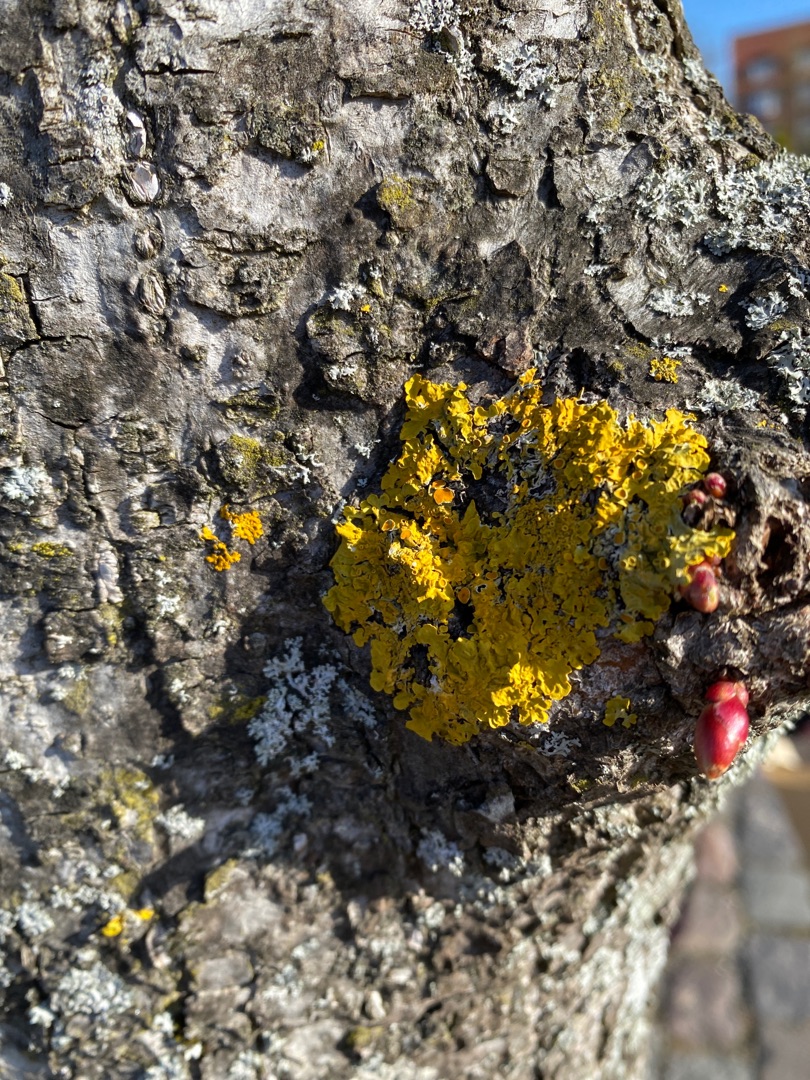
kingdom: Fungi
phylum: Ascomycota
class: Lecanoromycetes
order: Teloschistales
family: Teloschistaceae
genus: Xanthoria
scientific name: Xanthoria parietina
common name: Almindelig væggelav
